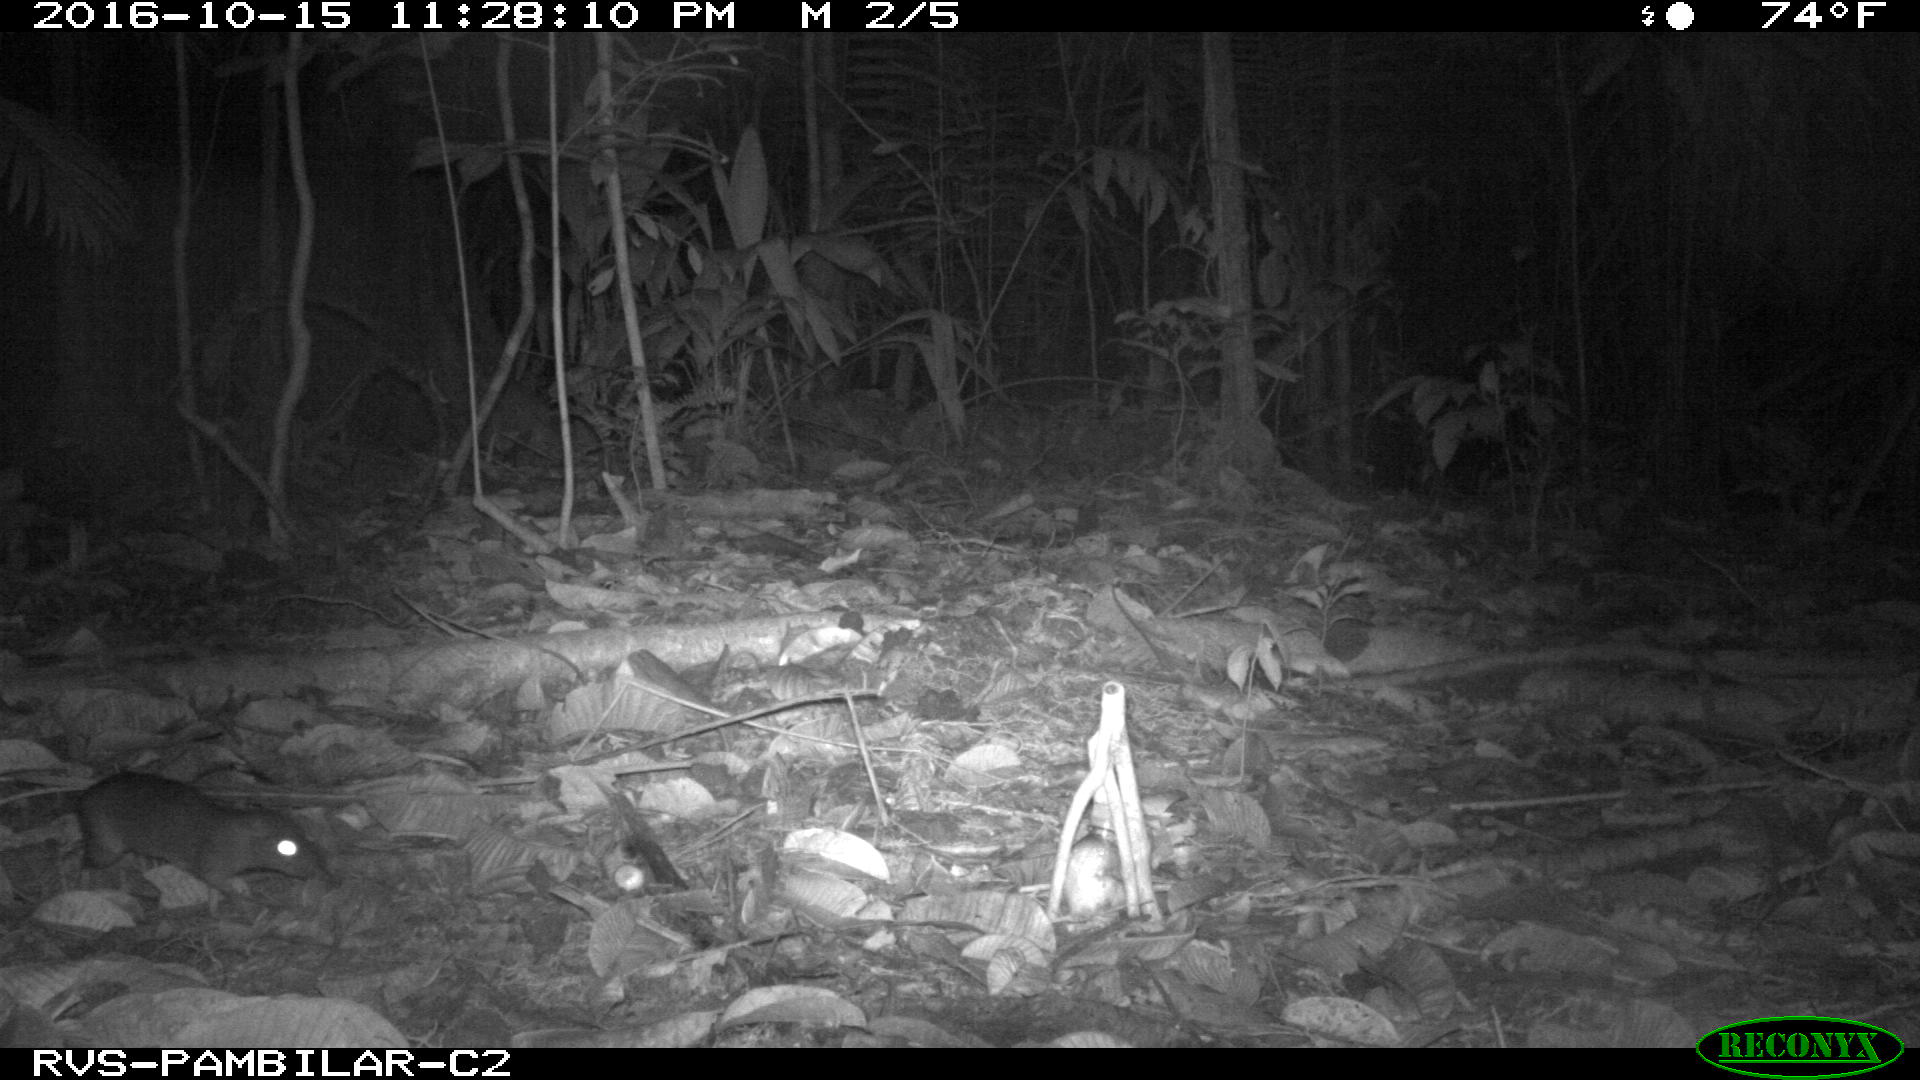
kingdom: Animalia
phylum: Chordata
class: Mammalia
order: Rodentia
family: Dasyproctidae
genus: Dasyprocta
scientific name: Dasyprocta punctata
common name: Central american agouti
